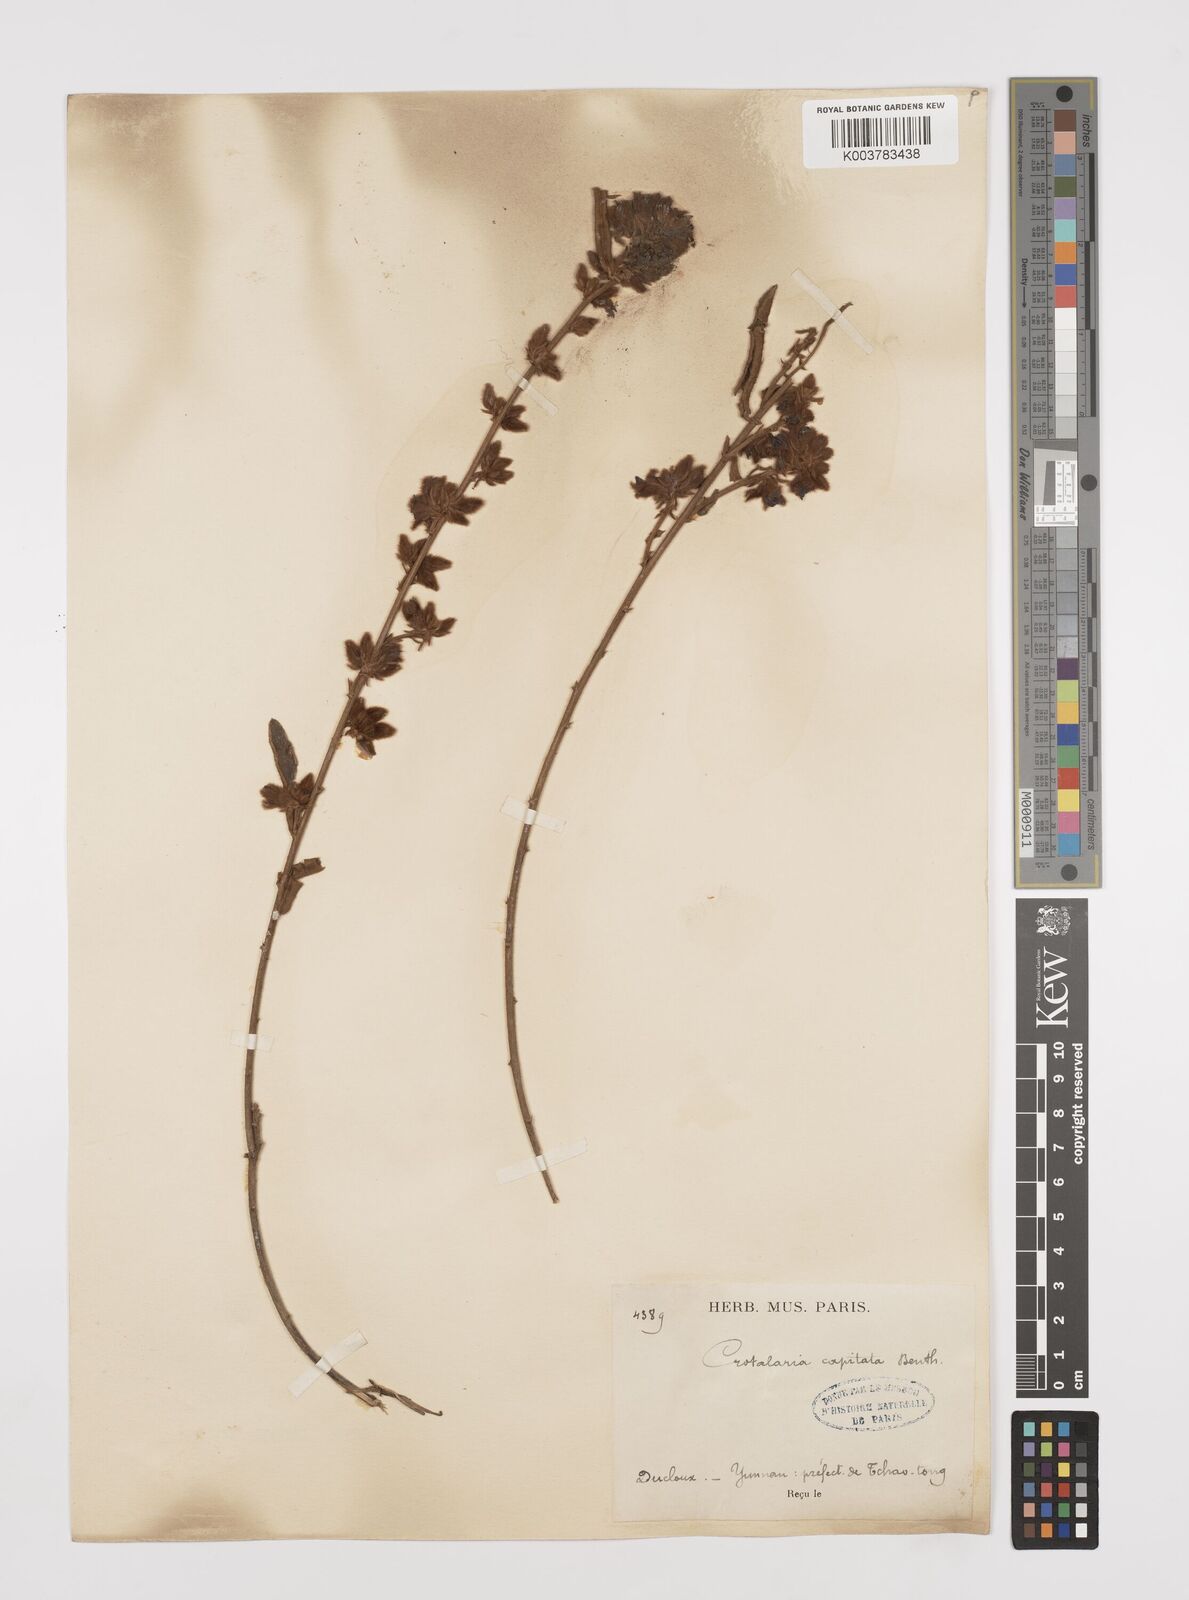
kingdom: Plantae
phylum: Tracheophyta
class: Magnoliopsida
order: Fabales
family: Fabaceae
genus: Liparia
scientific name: Liparia capitata
